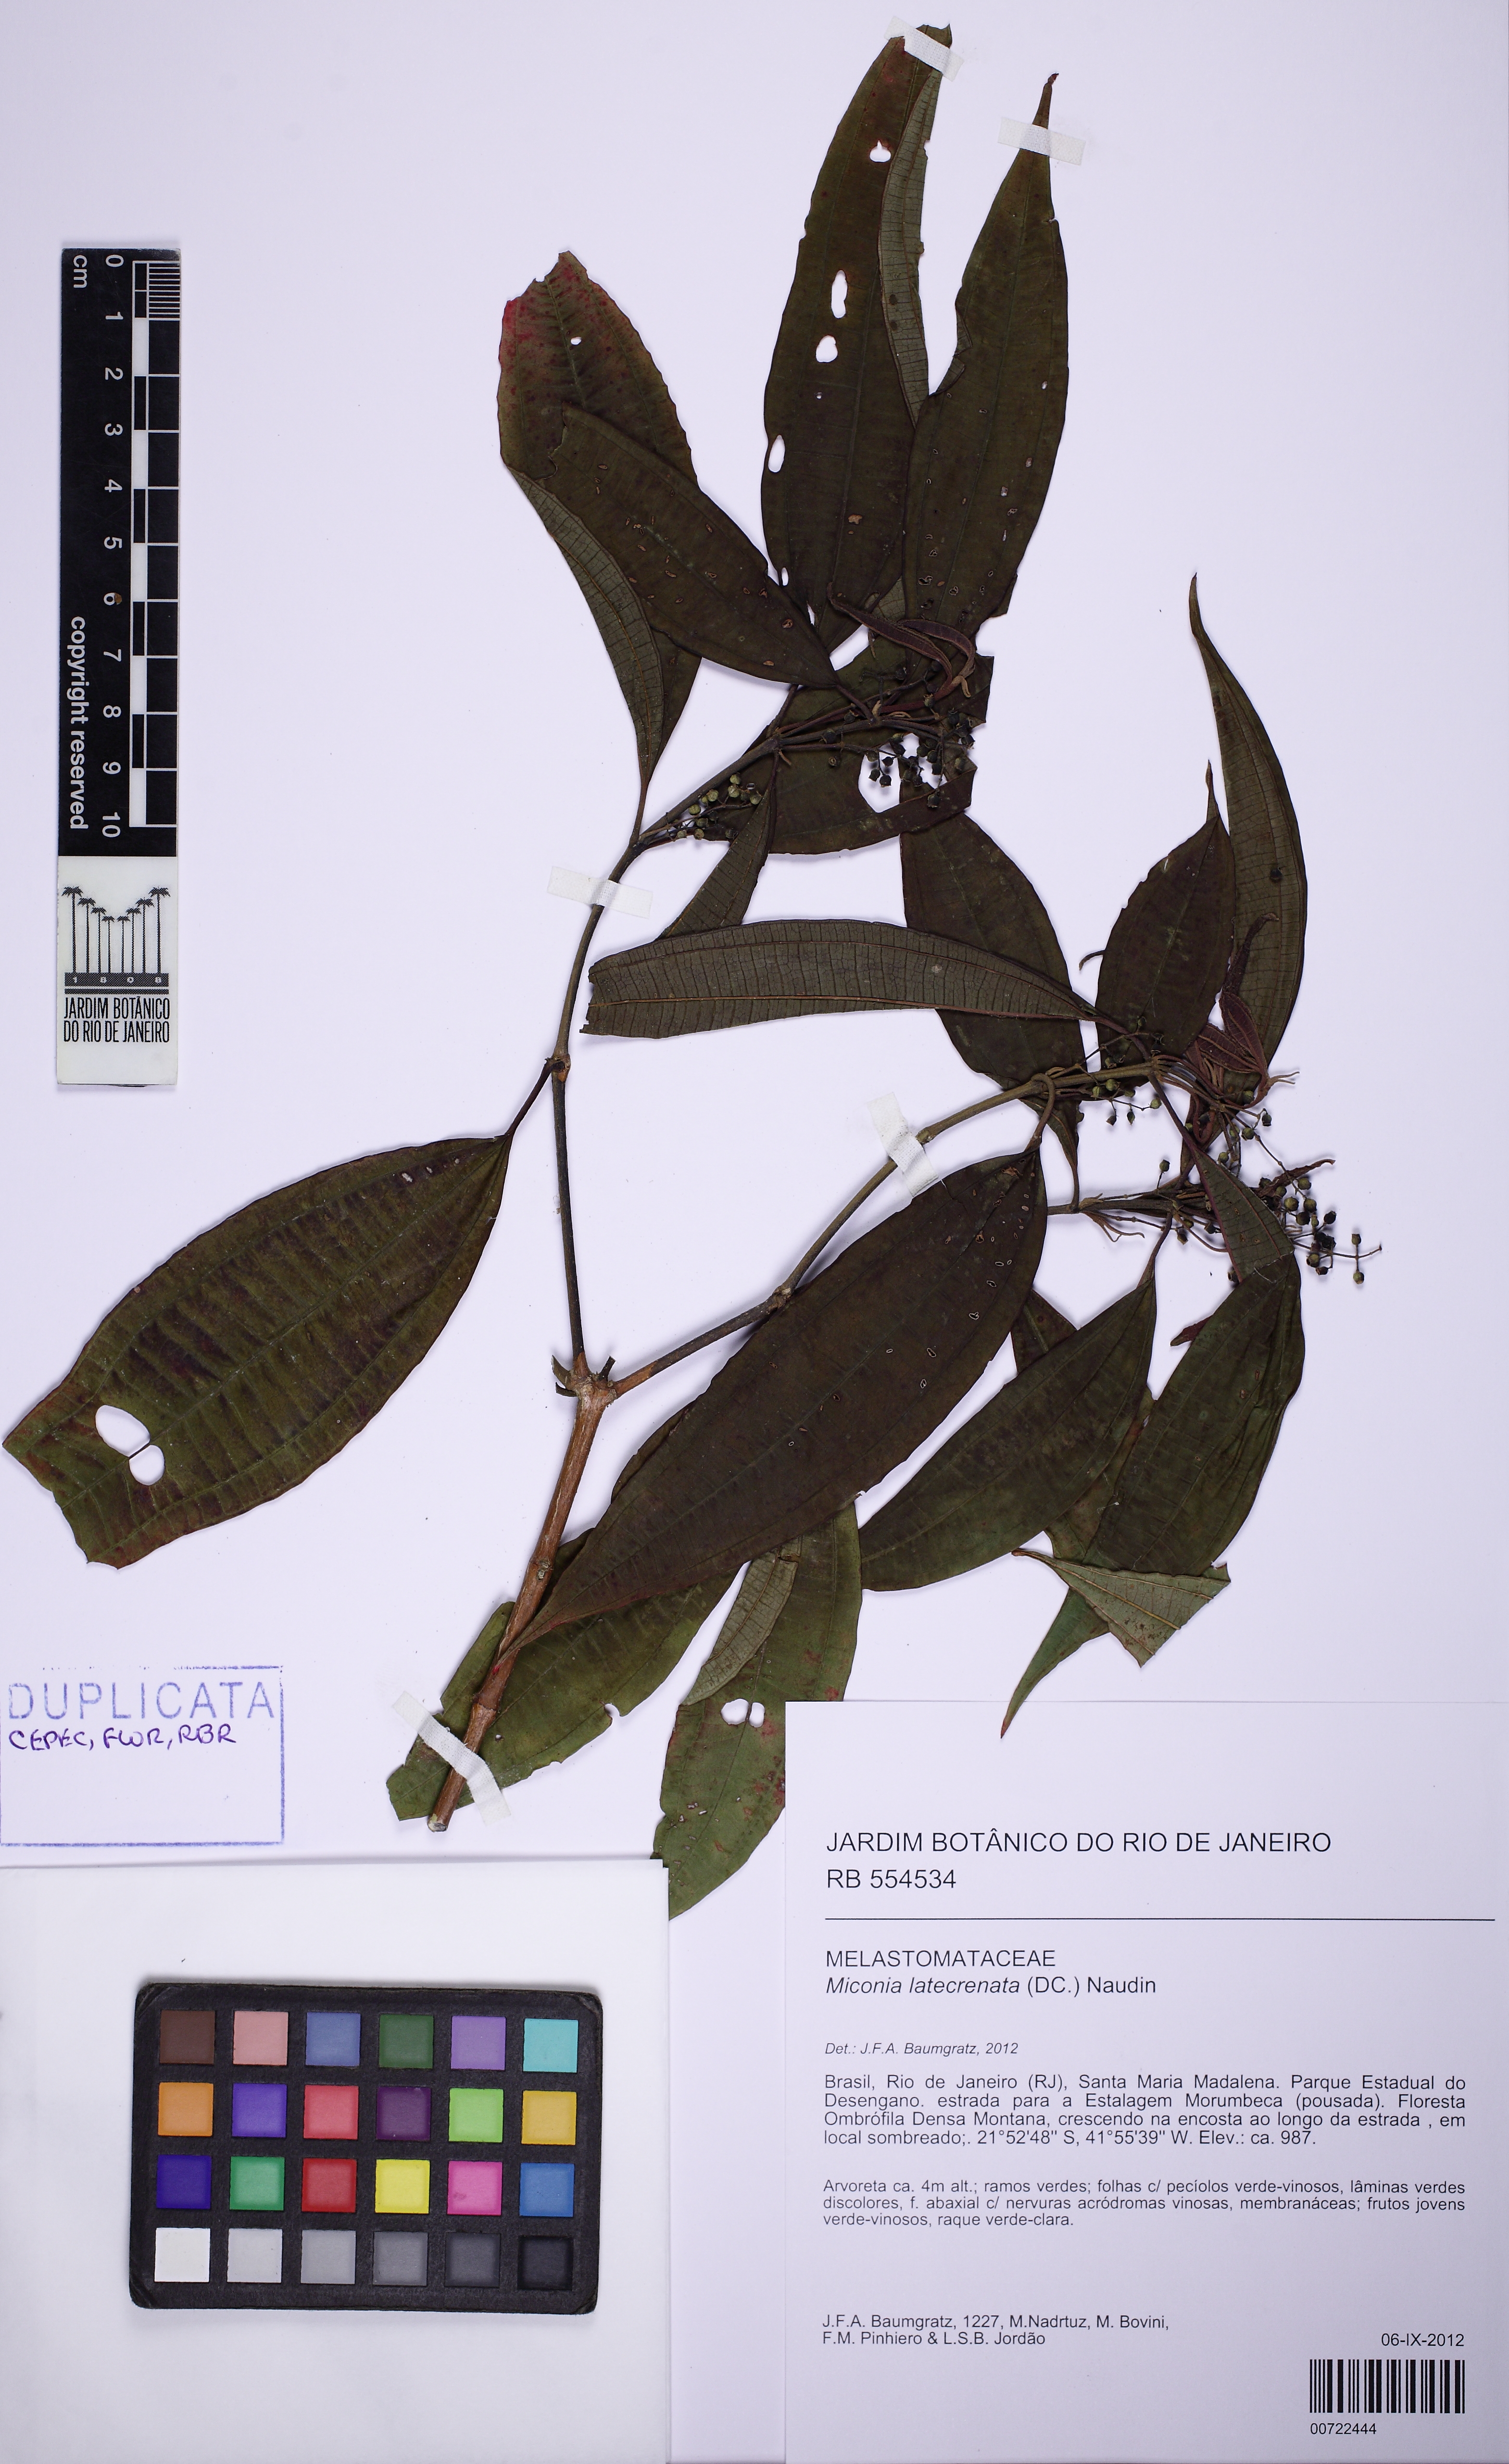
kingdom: Plantae
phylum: Tracheophyta
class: Magnoliopsida
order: Myrtales
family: Melastomataceae
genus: Miconia
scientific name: Miconia latecrenata
